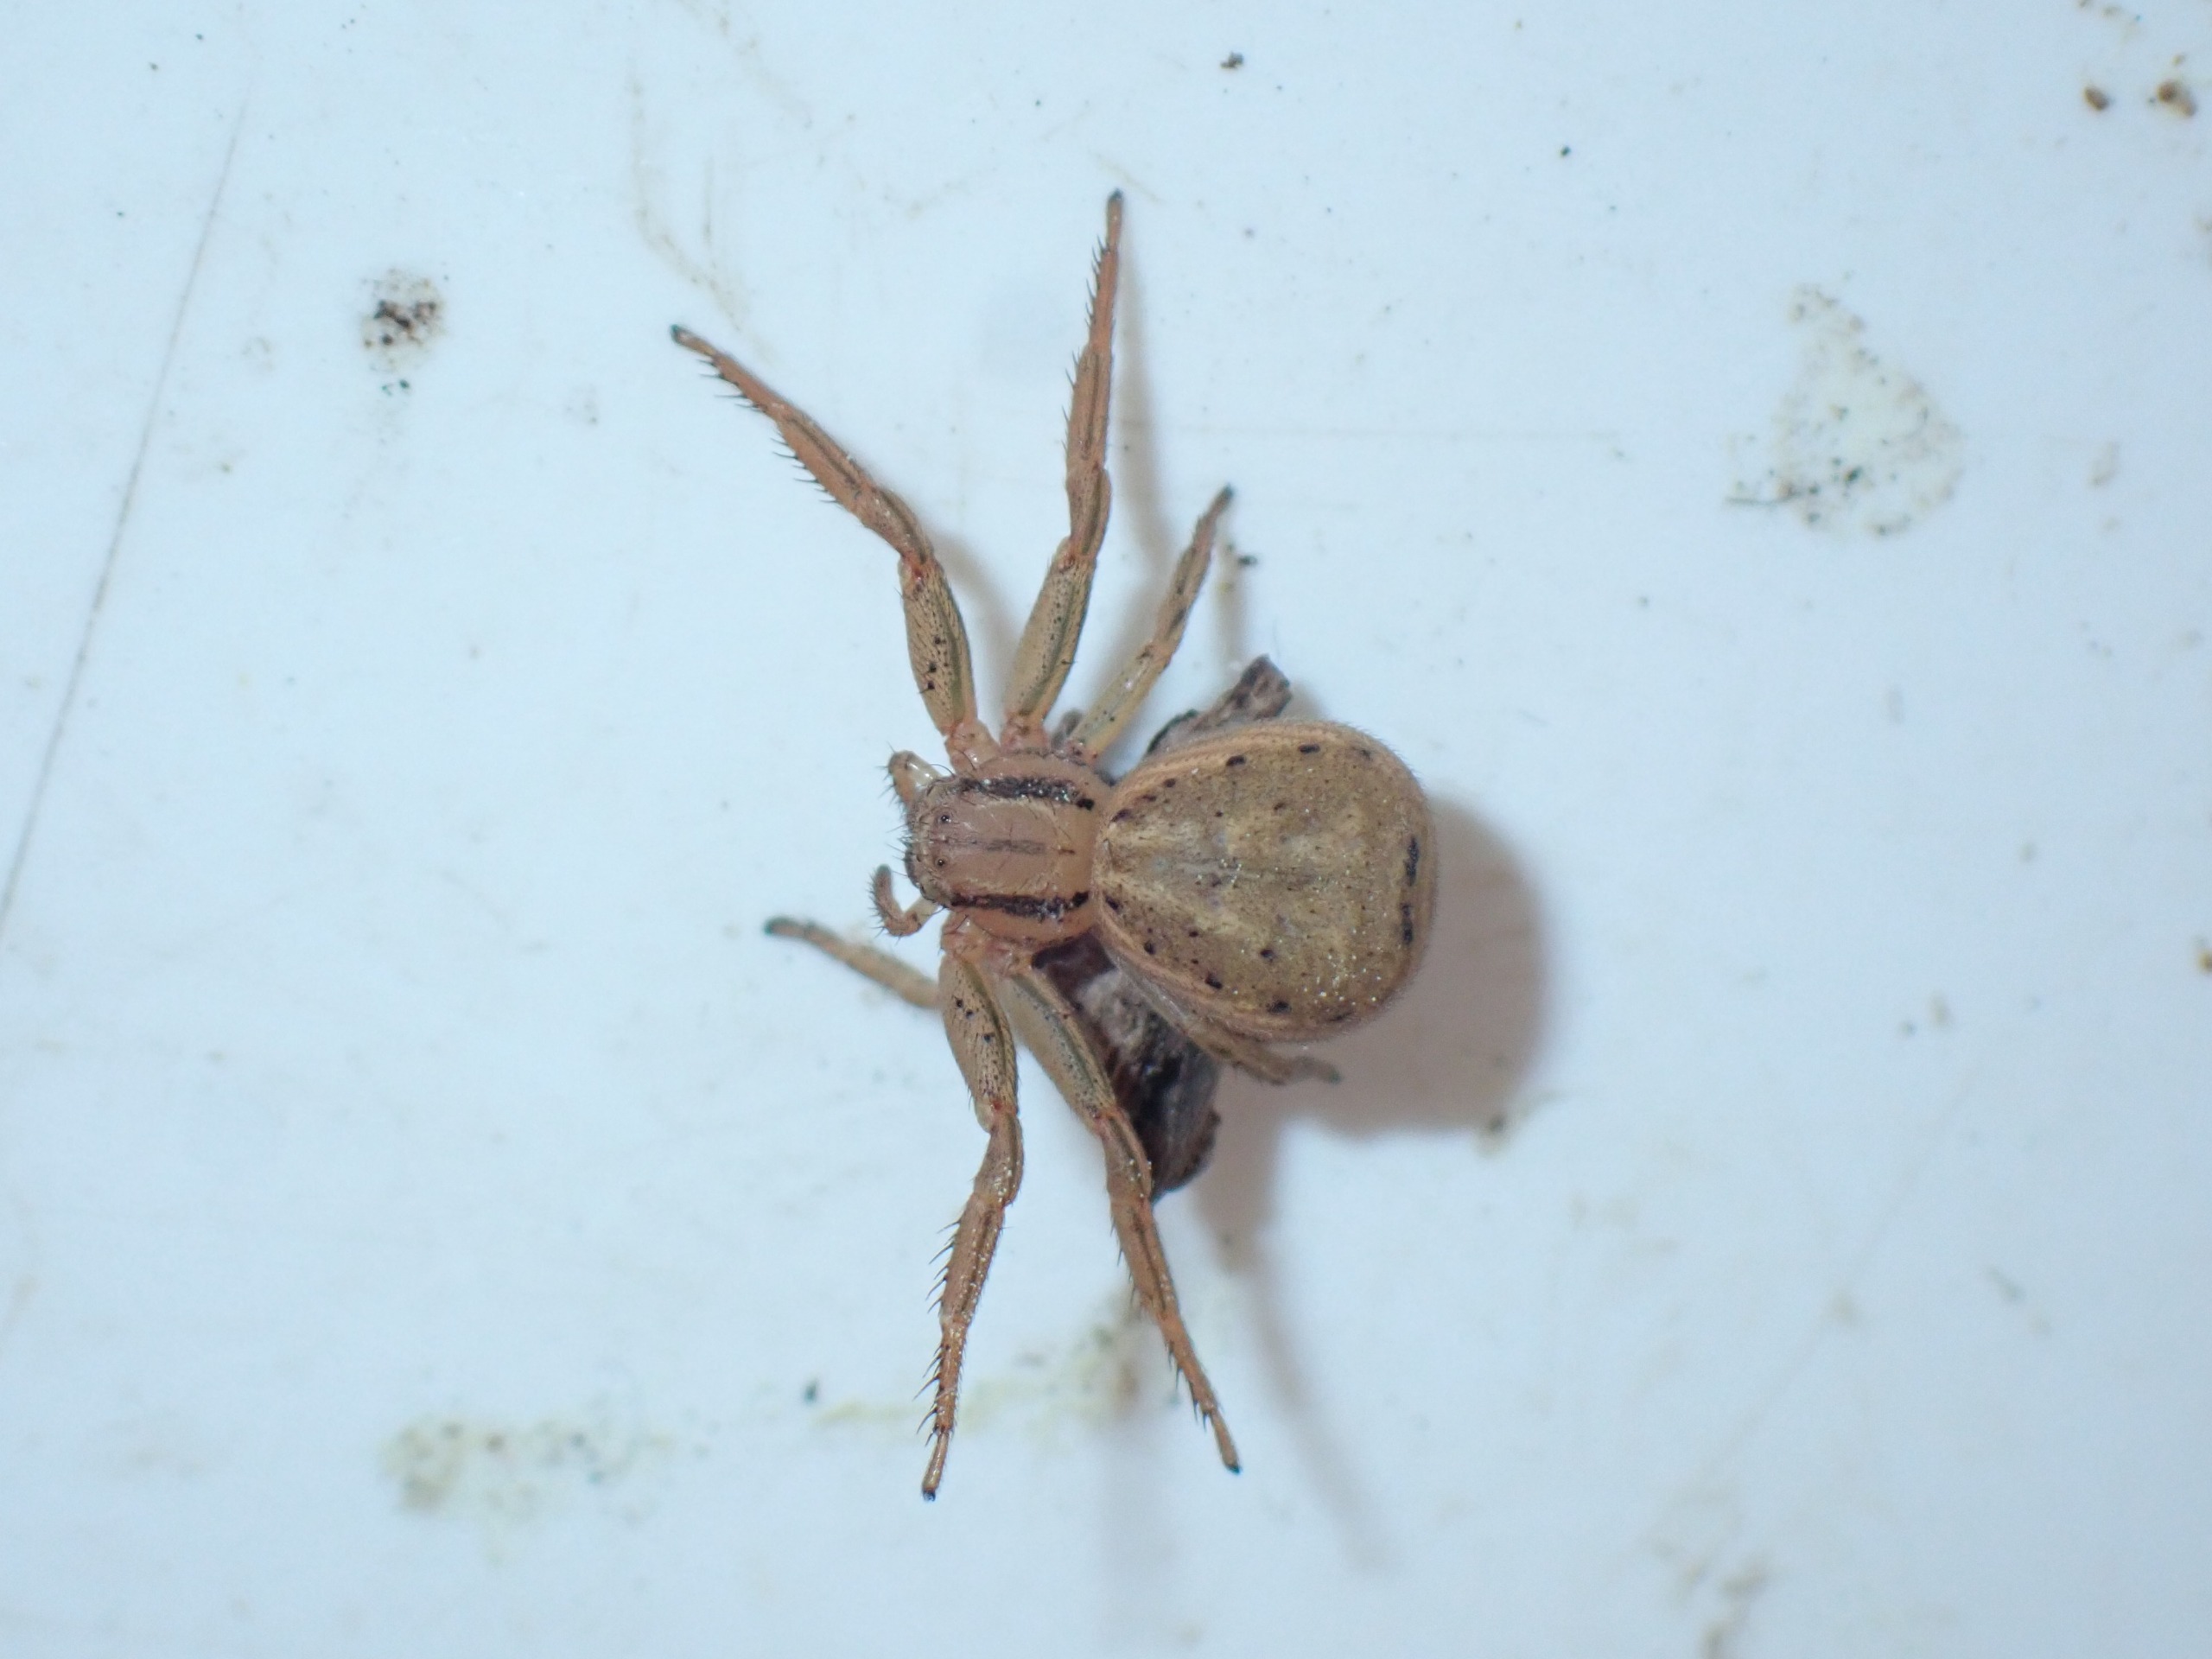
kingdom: Animalia
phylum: Arthropoda
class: Arachnida
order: Araneae
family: Thomisidae
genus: Xysticus
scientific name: Xysticus erraticus
